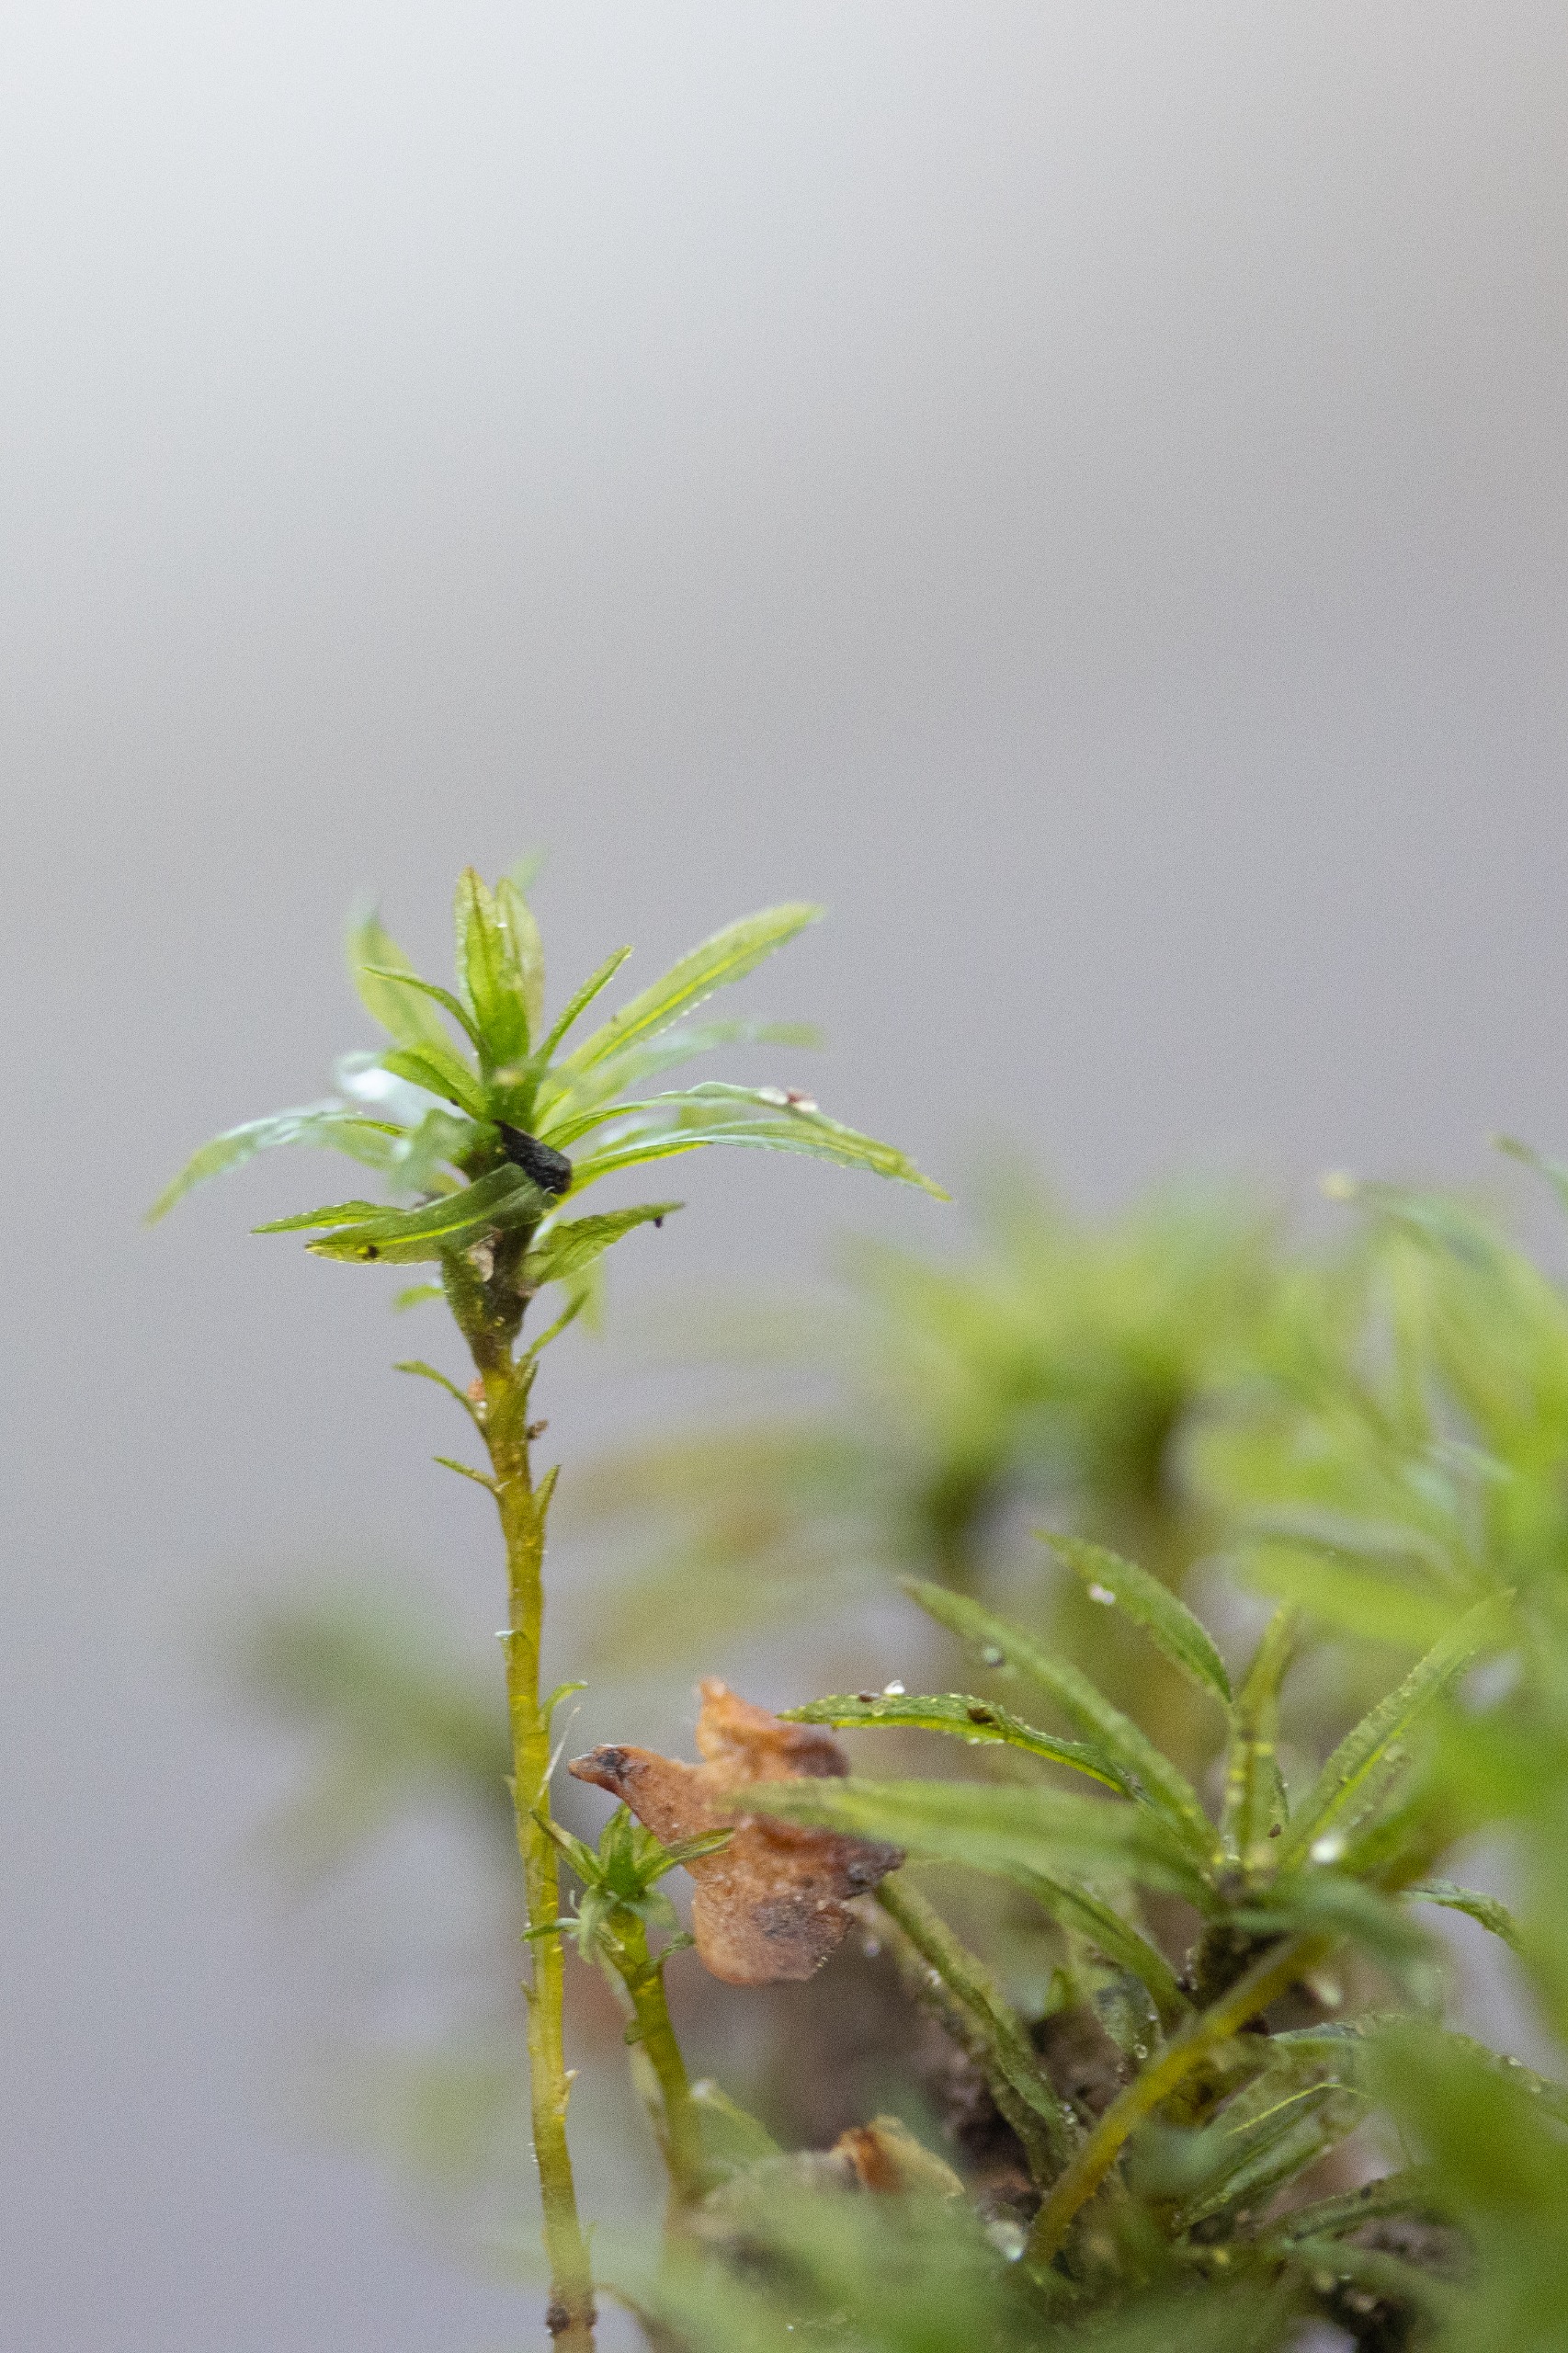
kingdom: Plantae
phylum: Bryophyta
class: Polytrichopsida
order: Polytrichales
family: Polytrichaceae
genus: Atrichum
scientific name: Atrichum undulatum
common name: Bølget katrinemos
